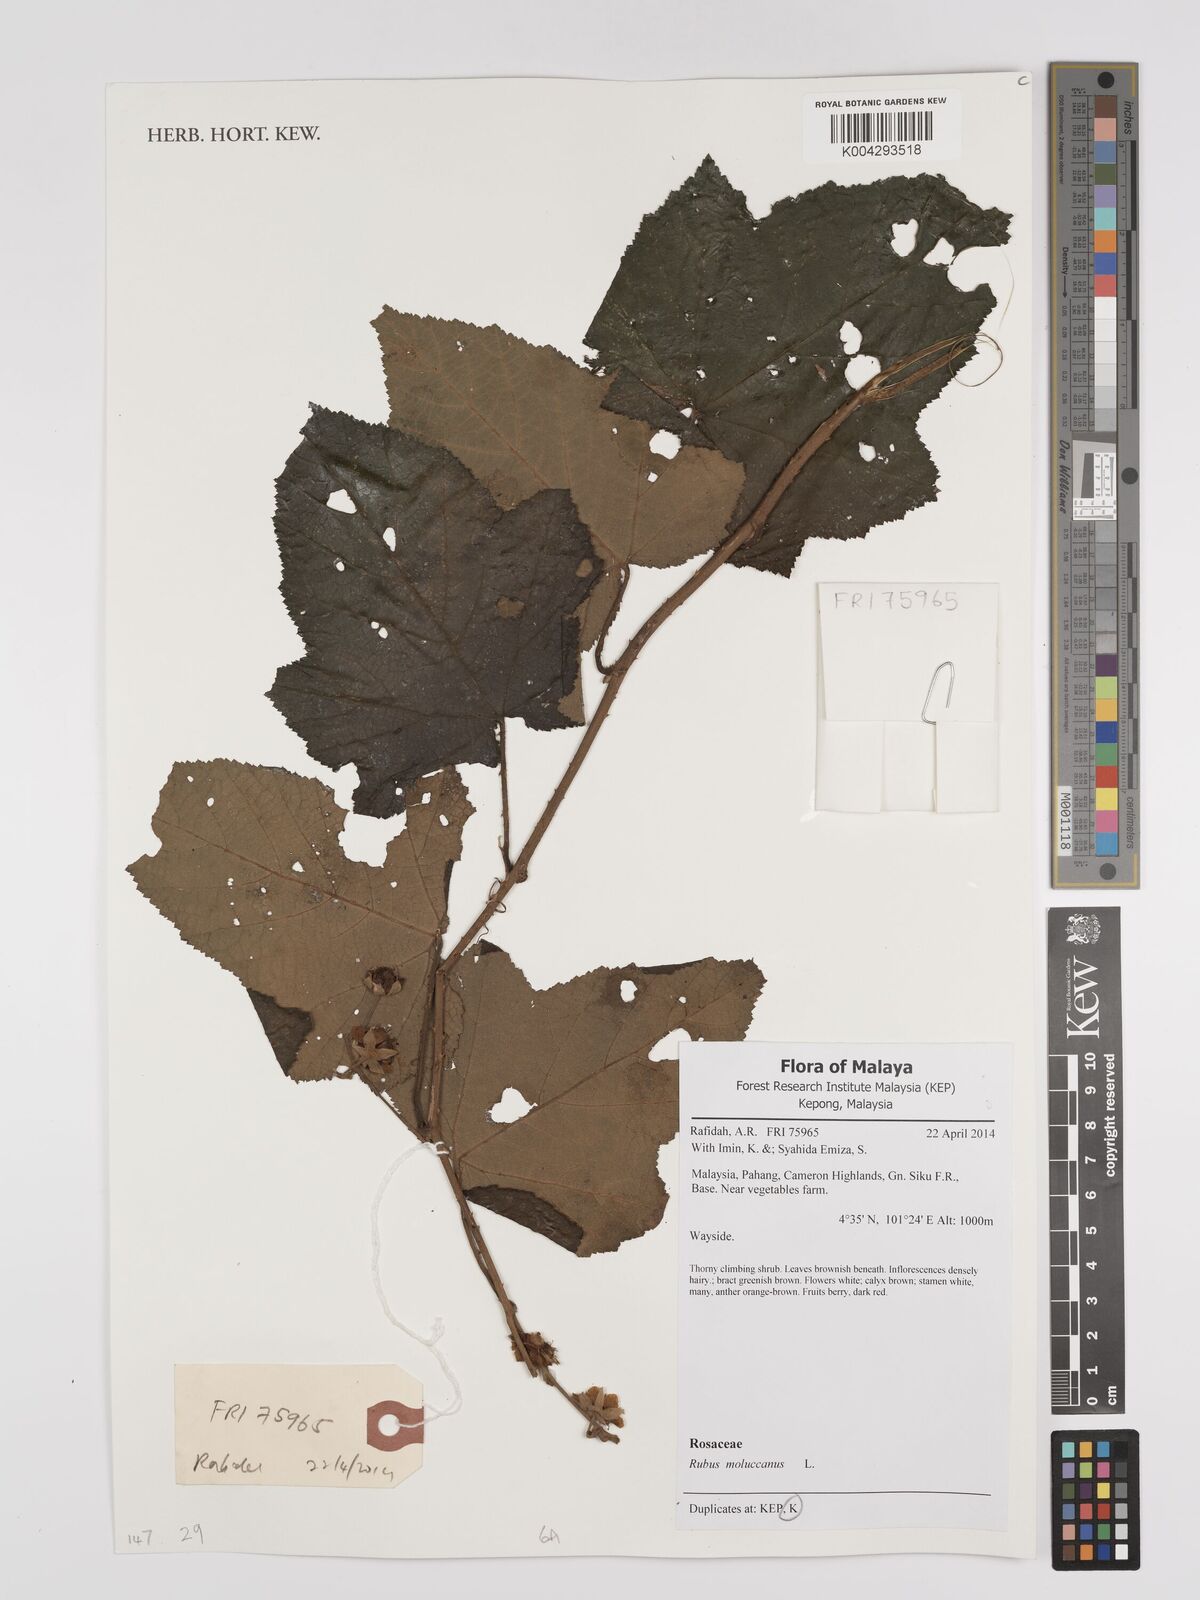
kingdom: Plantae
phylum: Tracheophyta
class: Magnoliopsida
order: Rosales
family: Rosaceae
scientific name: Rosaceae
